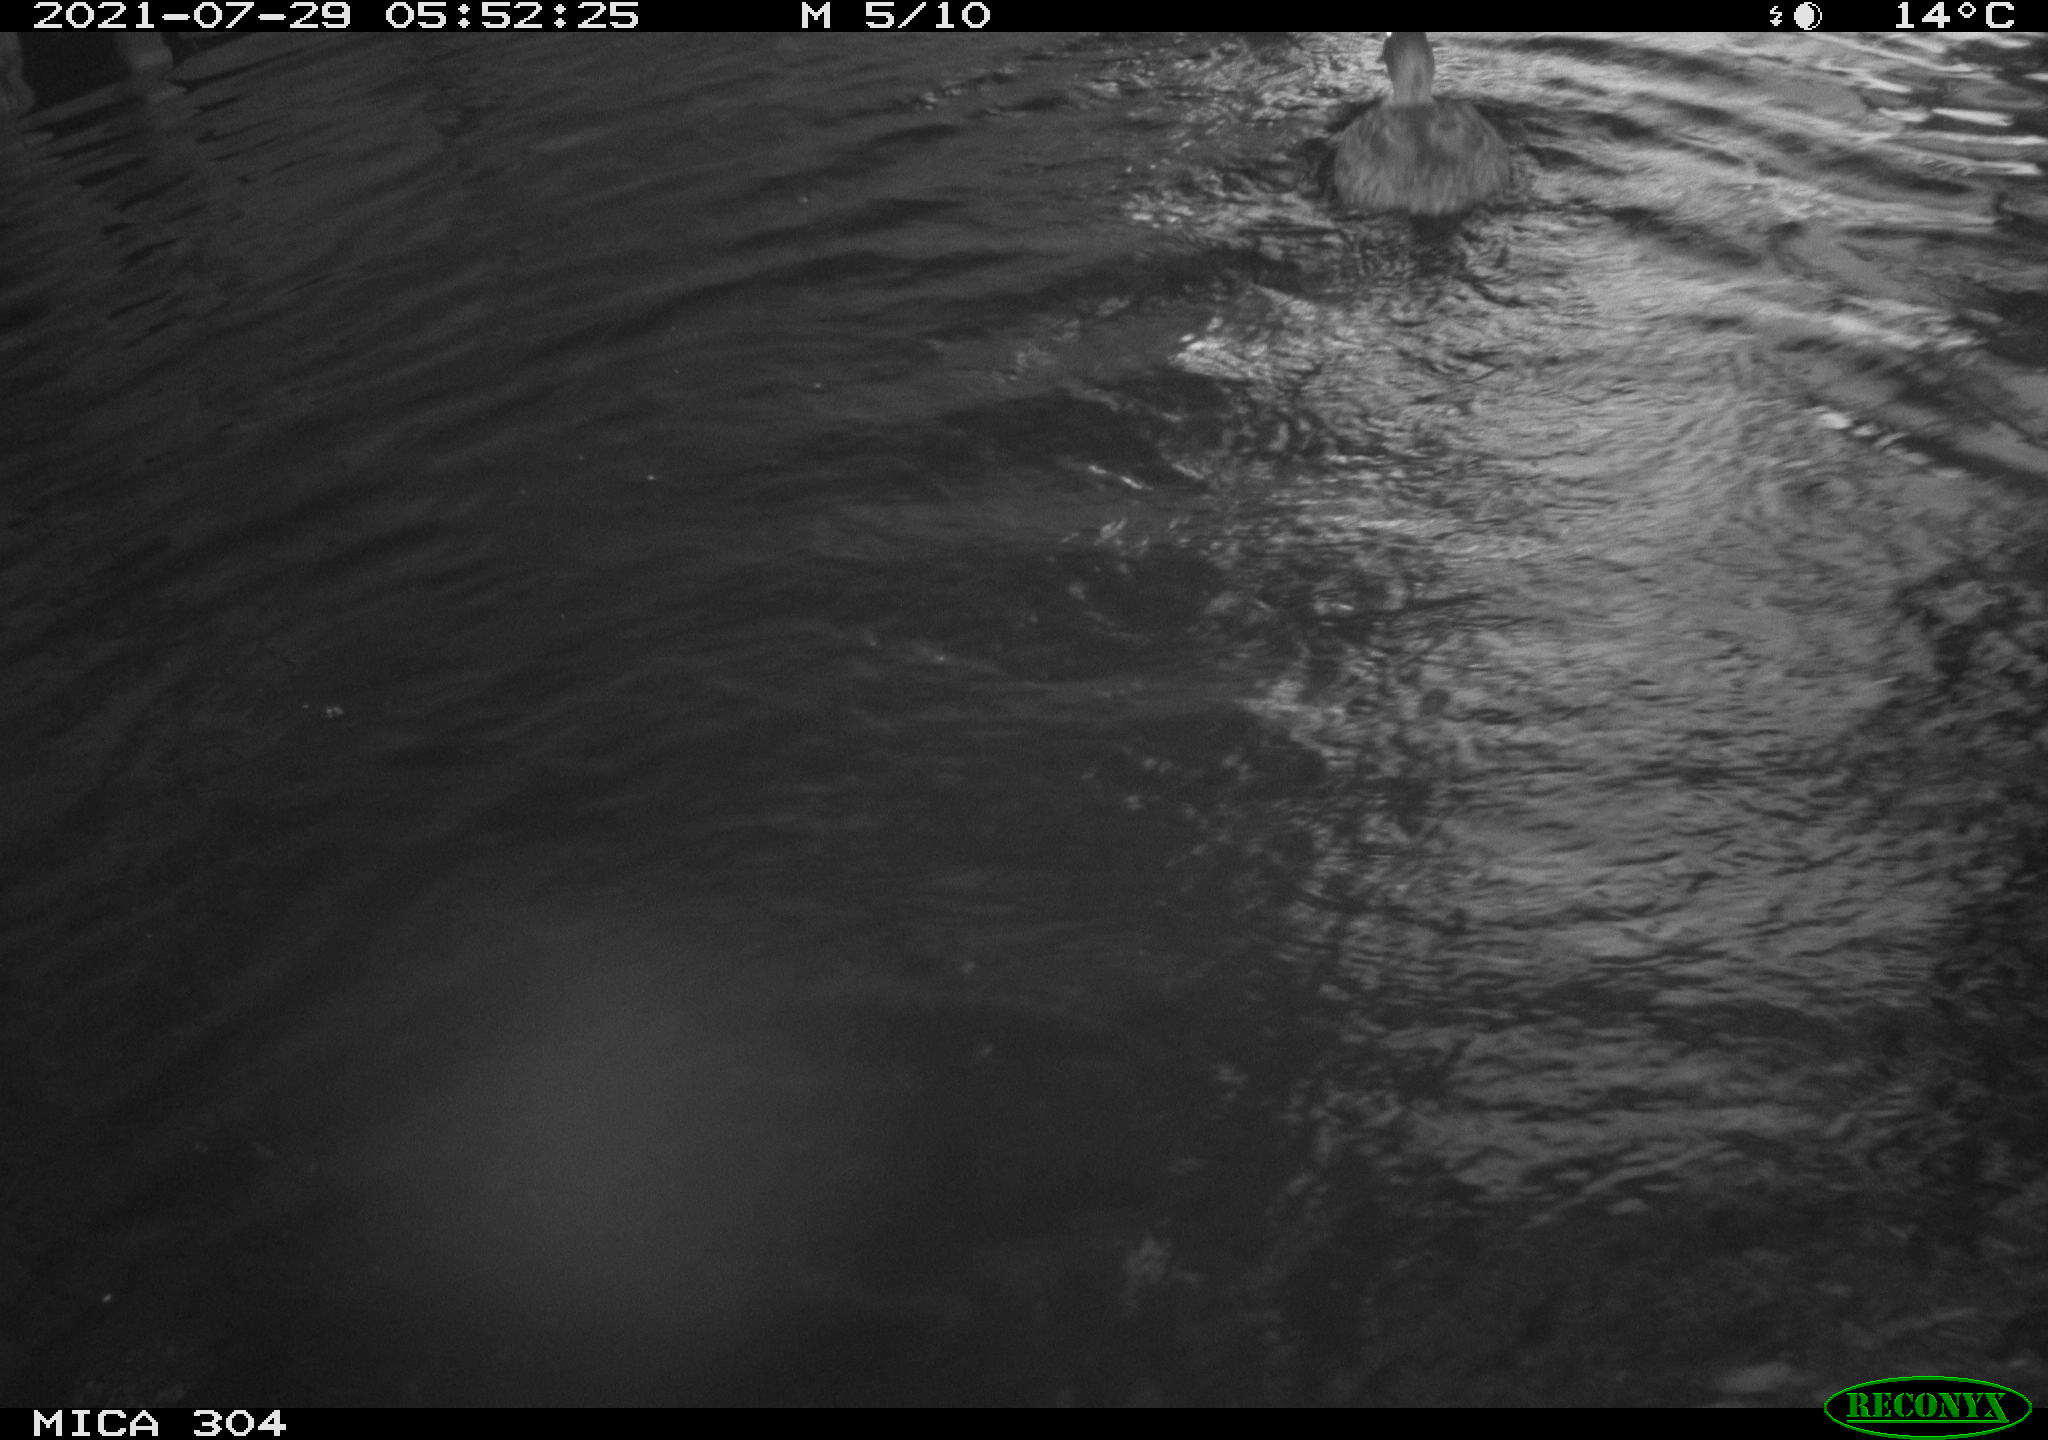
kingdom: Animalia
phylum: Chordata
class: Aves
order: Anseriformes
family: Anatidae
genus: Mareca
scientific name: Mareca strepera
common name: Gadwall
